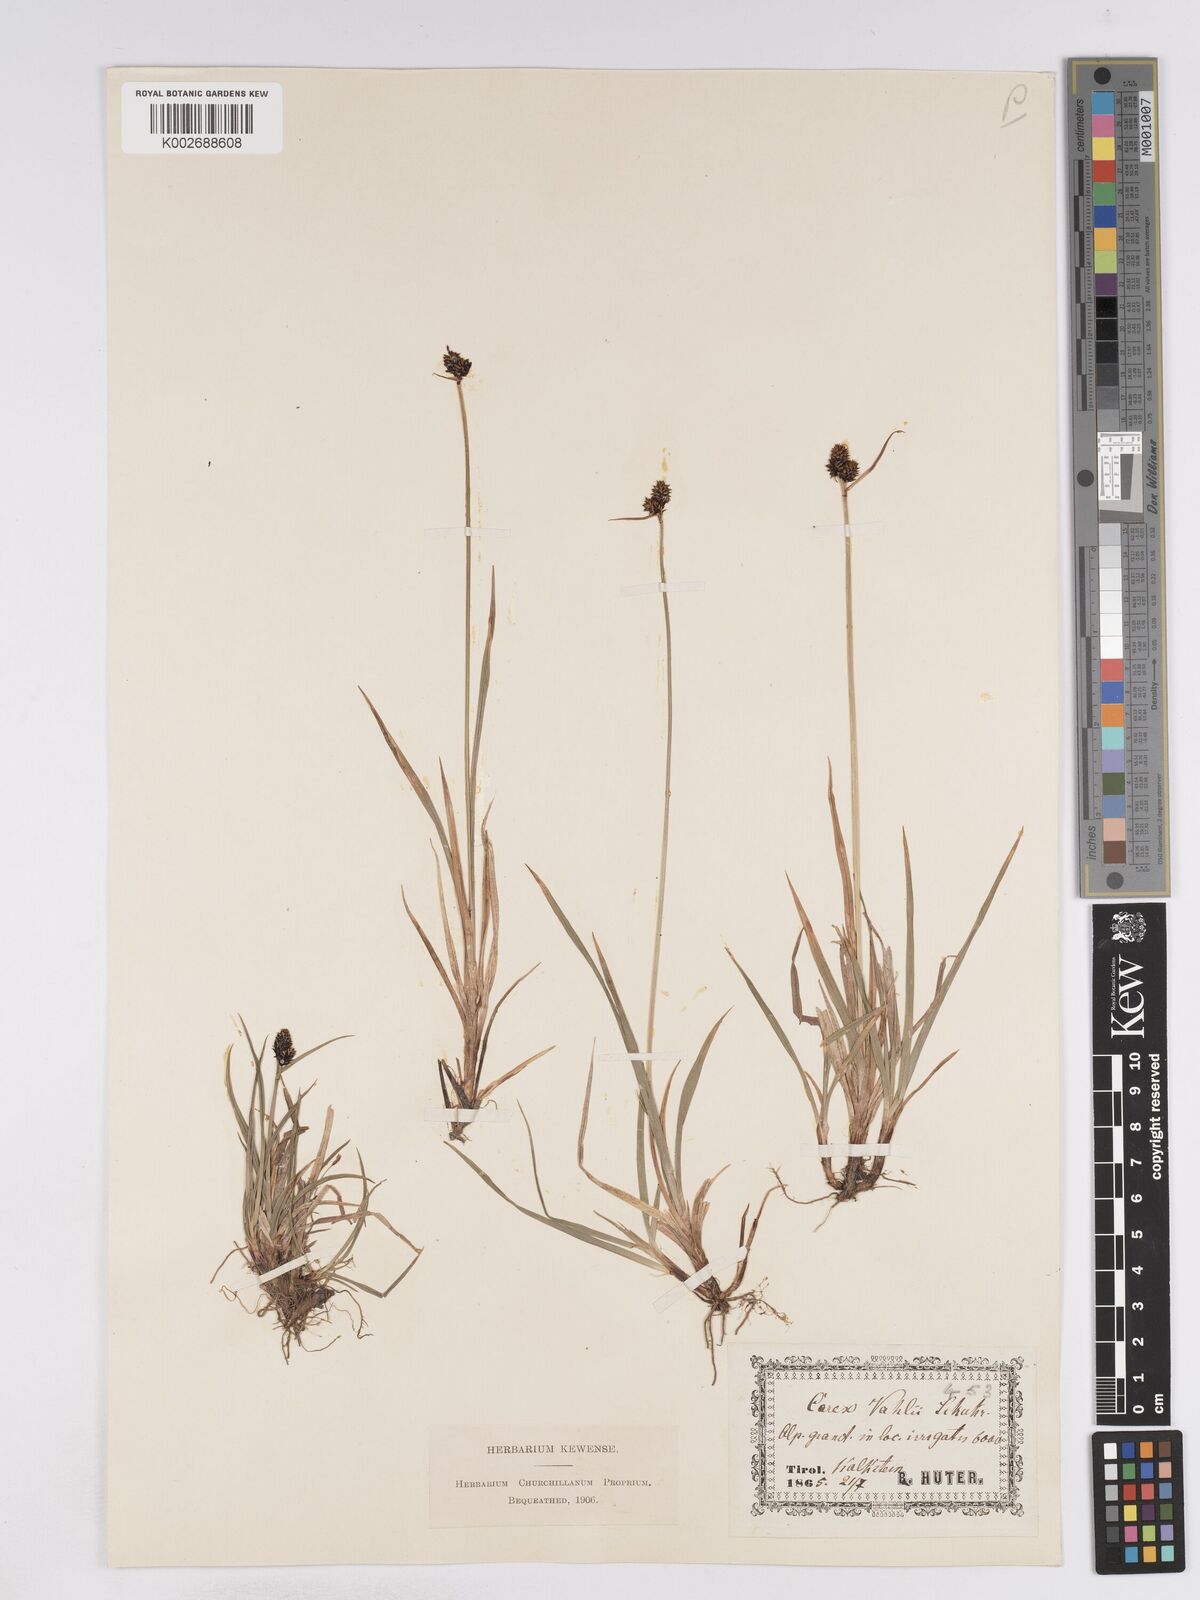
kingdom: Plantae
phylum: Tracheophyta
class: Liliopsida
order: Poales
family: Cyperaceae
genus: Carex
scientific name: Carex norvegica
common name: Close-headed alpine-sedge
